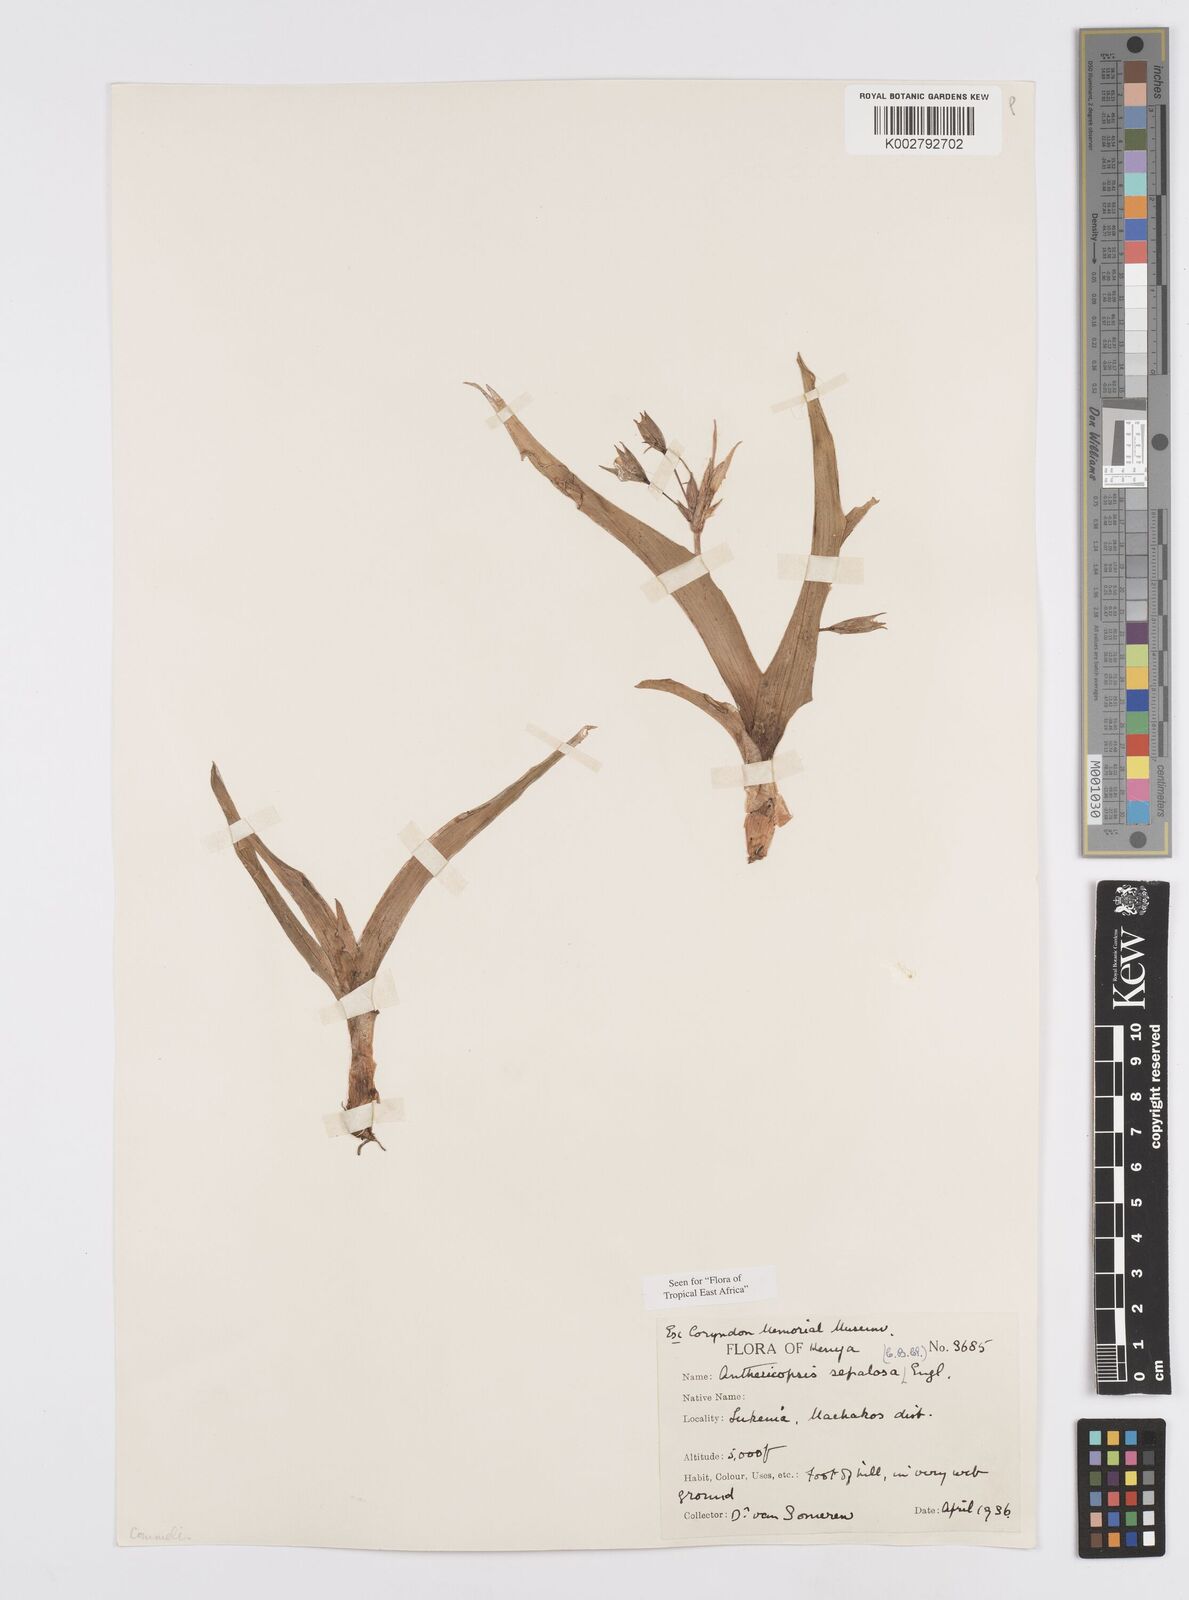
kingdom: Plantae
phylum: Tracheophyta
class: Liliopsida
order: Commelinales
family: Commelinaceae
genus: Anthericopsis
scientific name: Anthericopsis sepalosa
